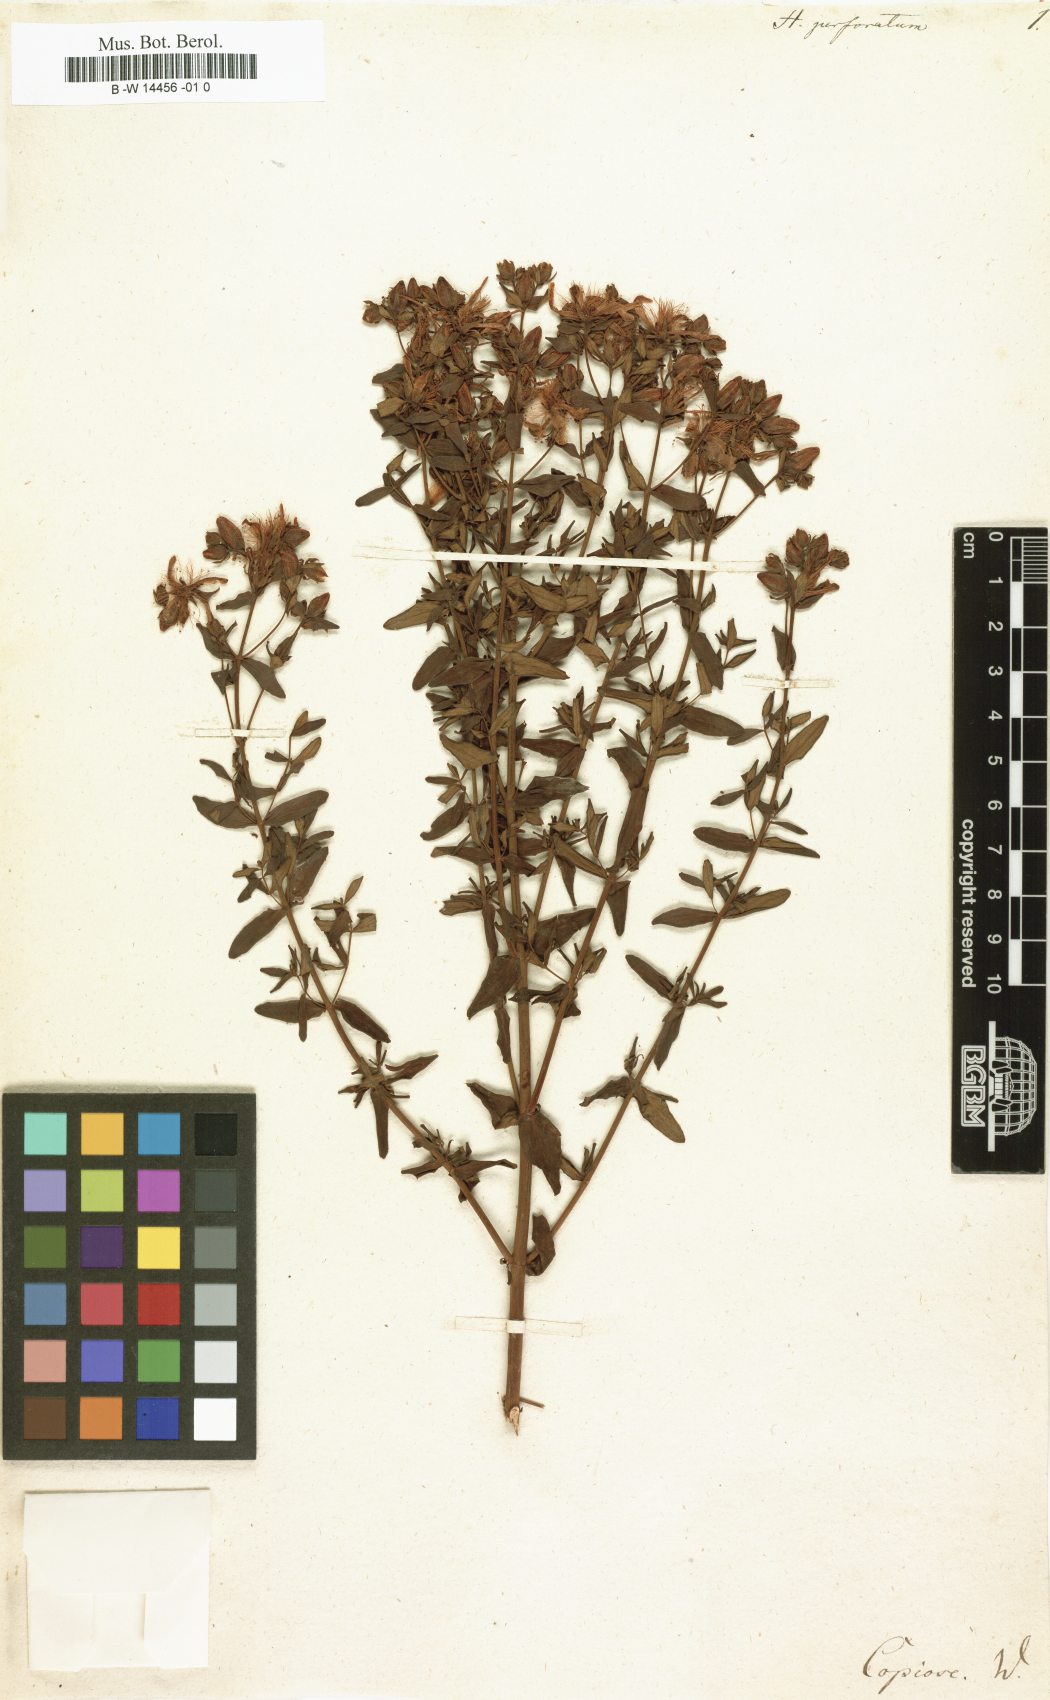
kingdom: Plantae
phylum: Tracheophyta
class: Magnoliopsida
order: Malpighiales
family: Hypericaceae
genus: Hypericum
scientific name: Hypericum perforatum
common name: Common st. johnswort
